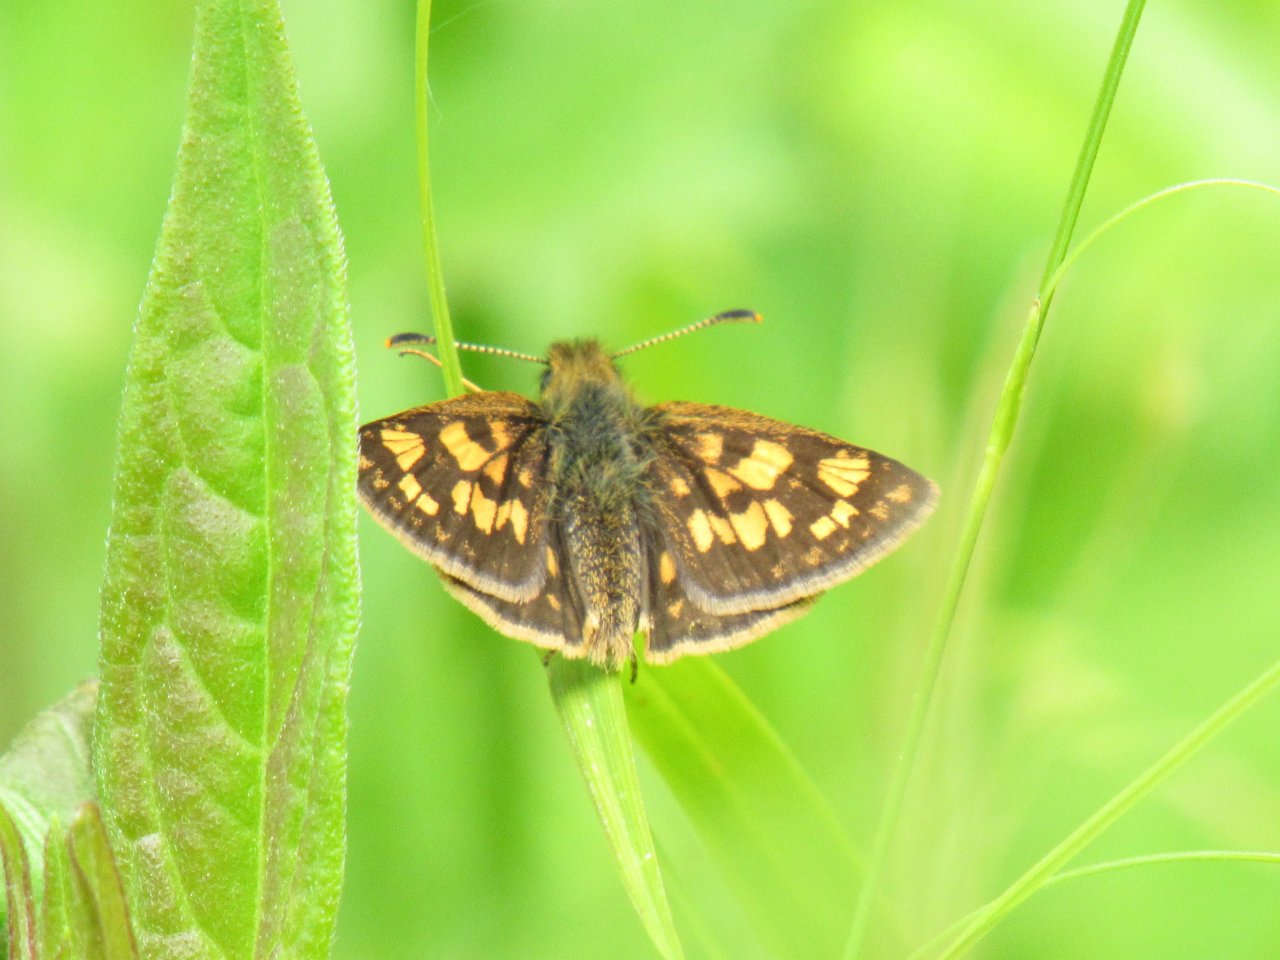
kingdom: Animalia
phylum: Arthropoda
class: Insecta
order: Lepidoptera
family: Hesperiidae
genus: Carterocephalus
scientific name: Carterocephalus palaemon
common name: Chequered Skipper
